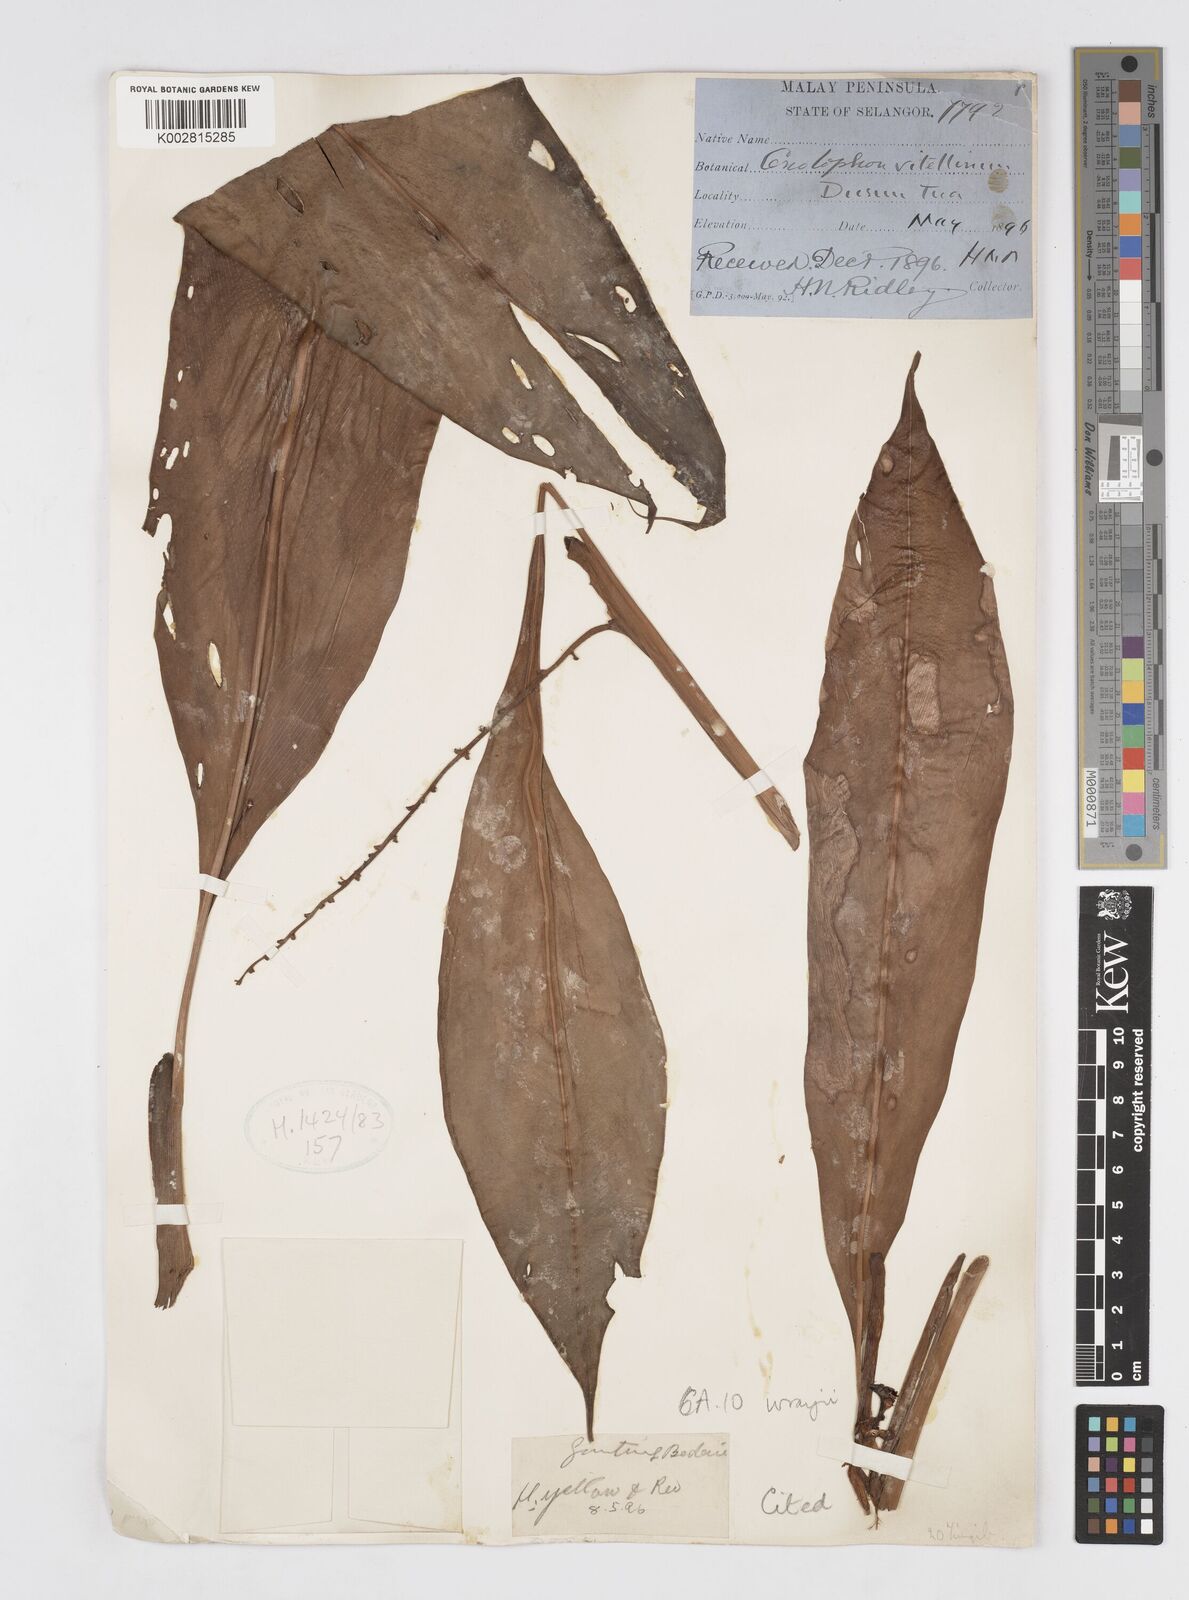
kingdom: Plantae
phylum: Tracheophyta
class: Liliopsida
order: Zingiberales
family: Zingiberaceae
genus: Alpinia
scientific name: Alpinia vitellina
